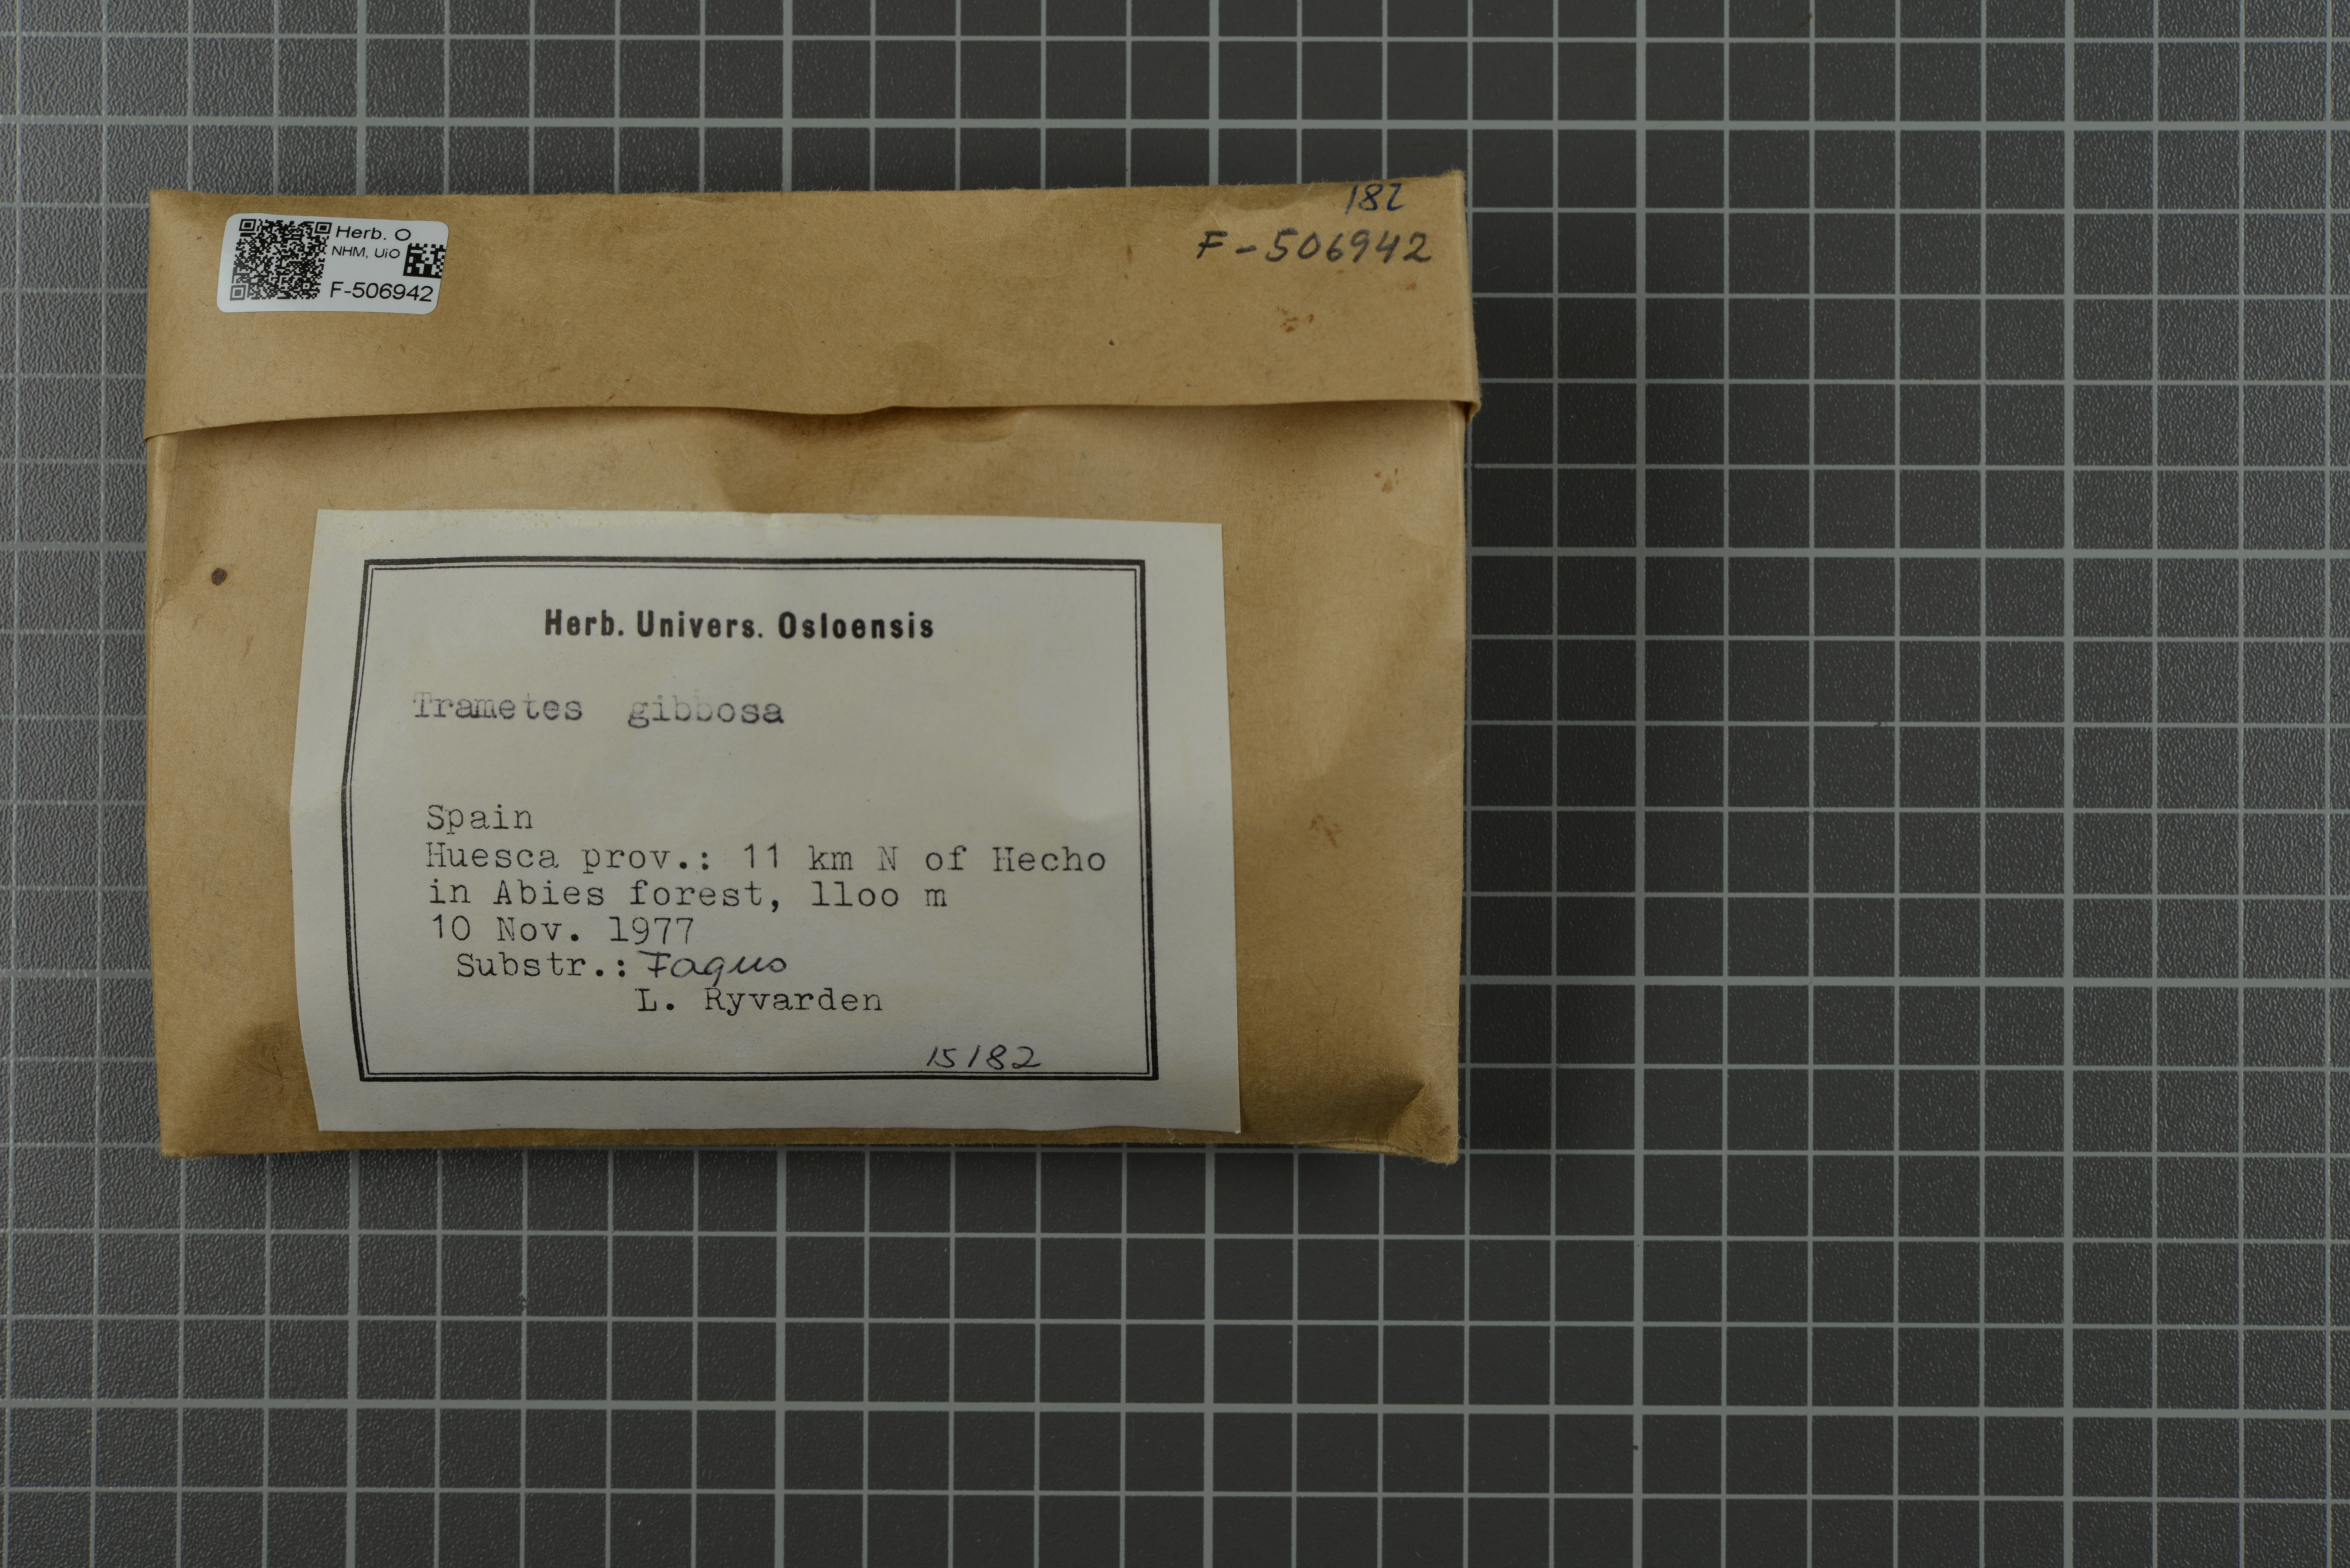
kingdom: Fungi
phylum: Basidiomycota
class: Agaricomycetes
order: Polyporales
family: Polyporaceae
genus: Trametes
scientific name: Trametes gibbosa
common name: Lumpy bracket
